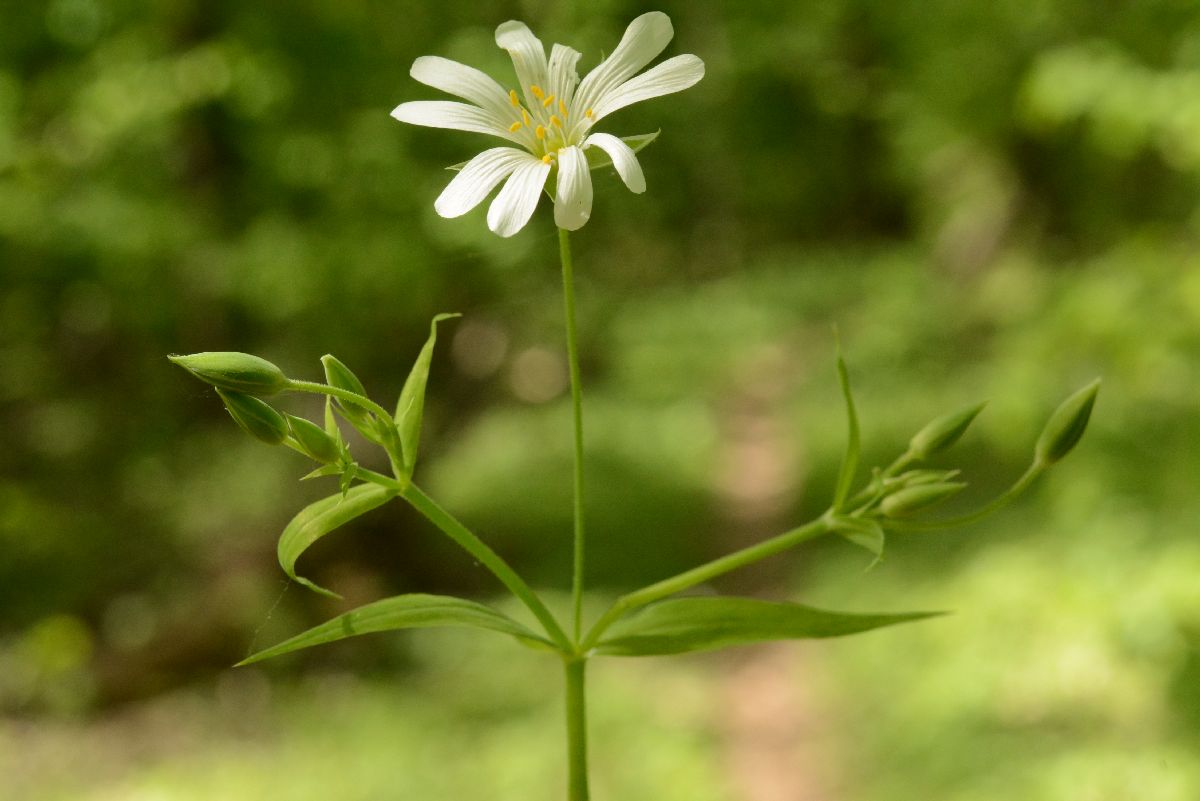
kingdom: Plantae
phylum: Tracheophyta
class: Magnoliopsida
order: Caryophyllales
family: Caryophyllaceae
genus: Rabelera
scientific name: Rabelera holostea
